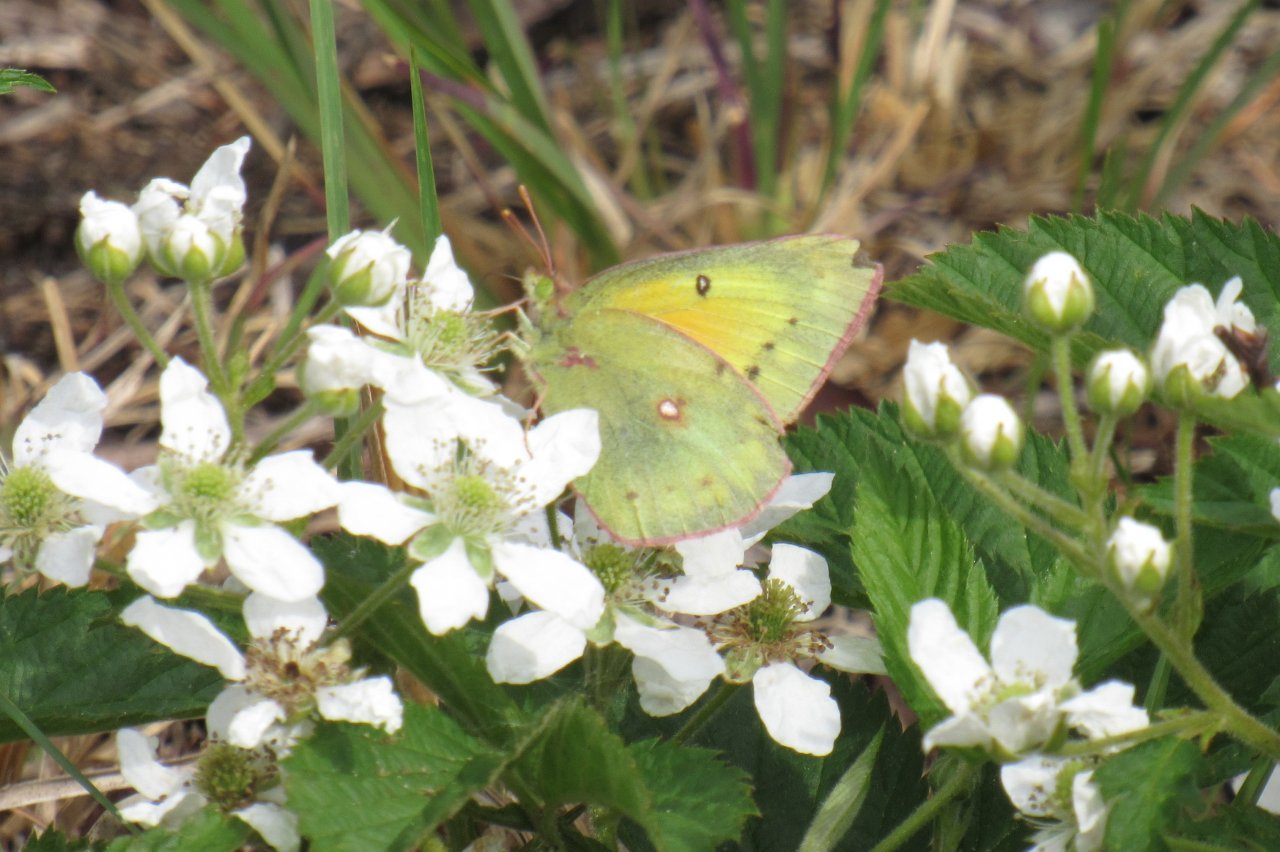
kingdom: Animalia
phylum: Arthropoda
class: Insecta
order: Lepidoptera
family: Pieridae
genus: Colias
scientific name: Colias eurytheme
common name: Orange Sulphur
